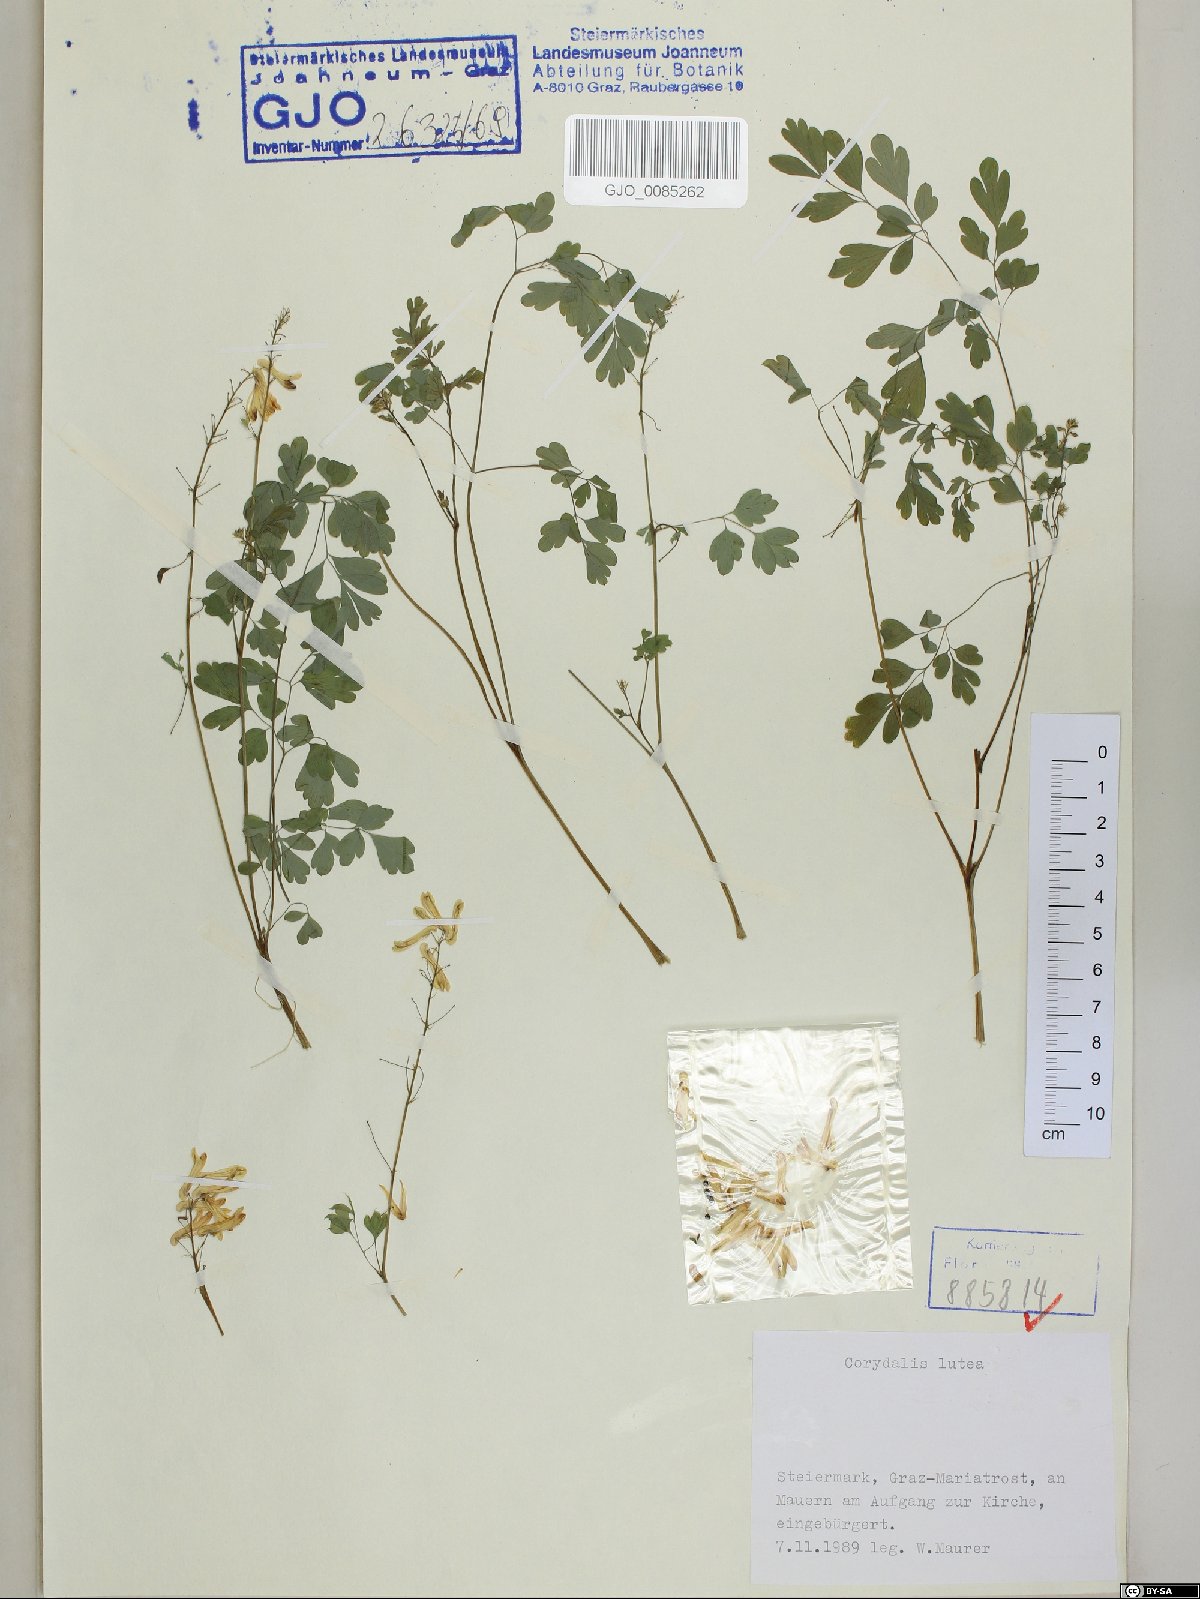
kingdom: Plantae
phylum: Tracheophyta
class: Magnoliopsida
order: Ranunculales
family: Papaveraceae
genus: Pseudofumaria
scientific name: Pseudofumaria lutea
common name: Yellow corydalis
